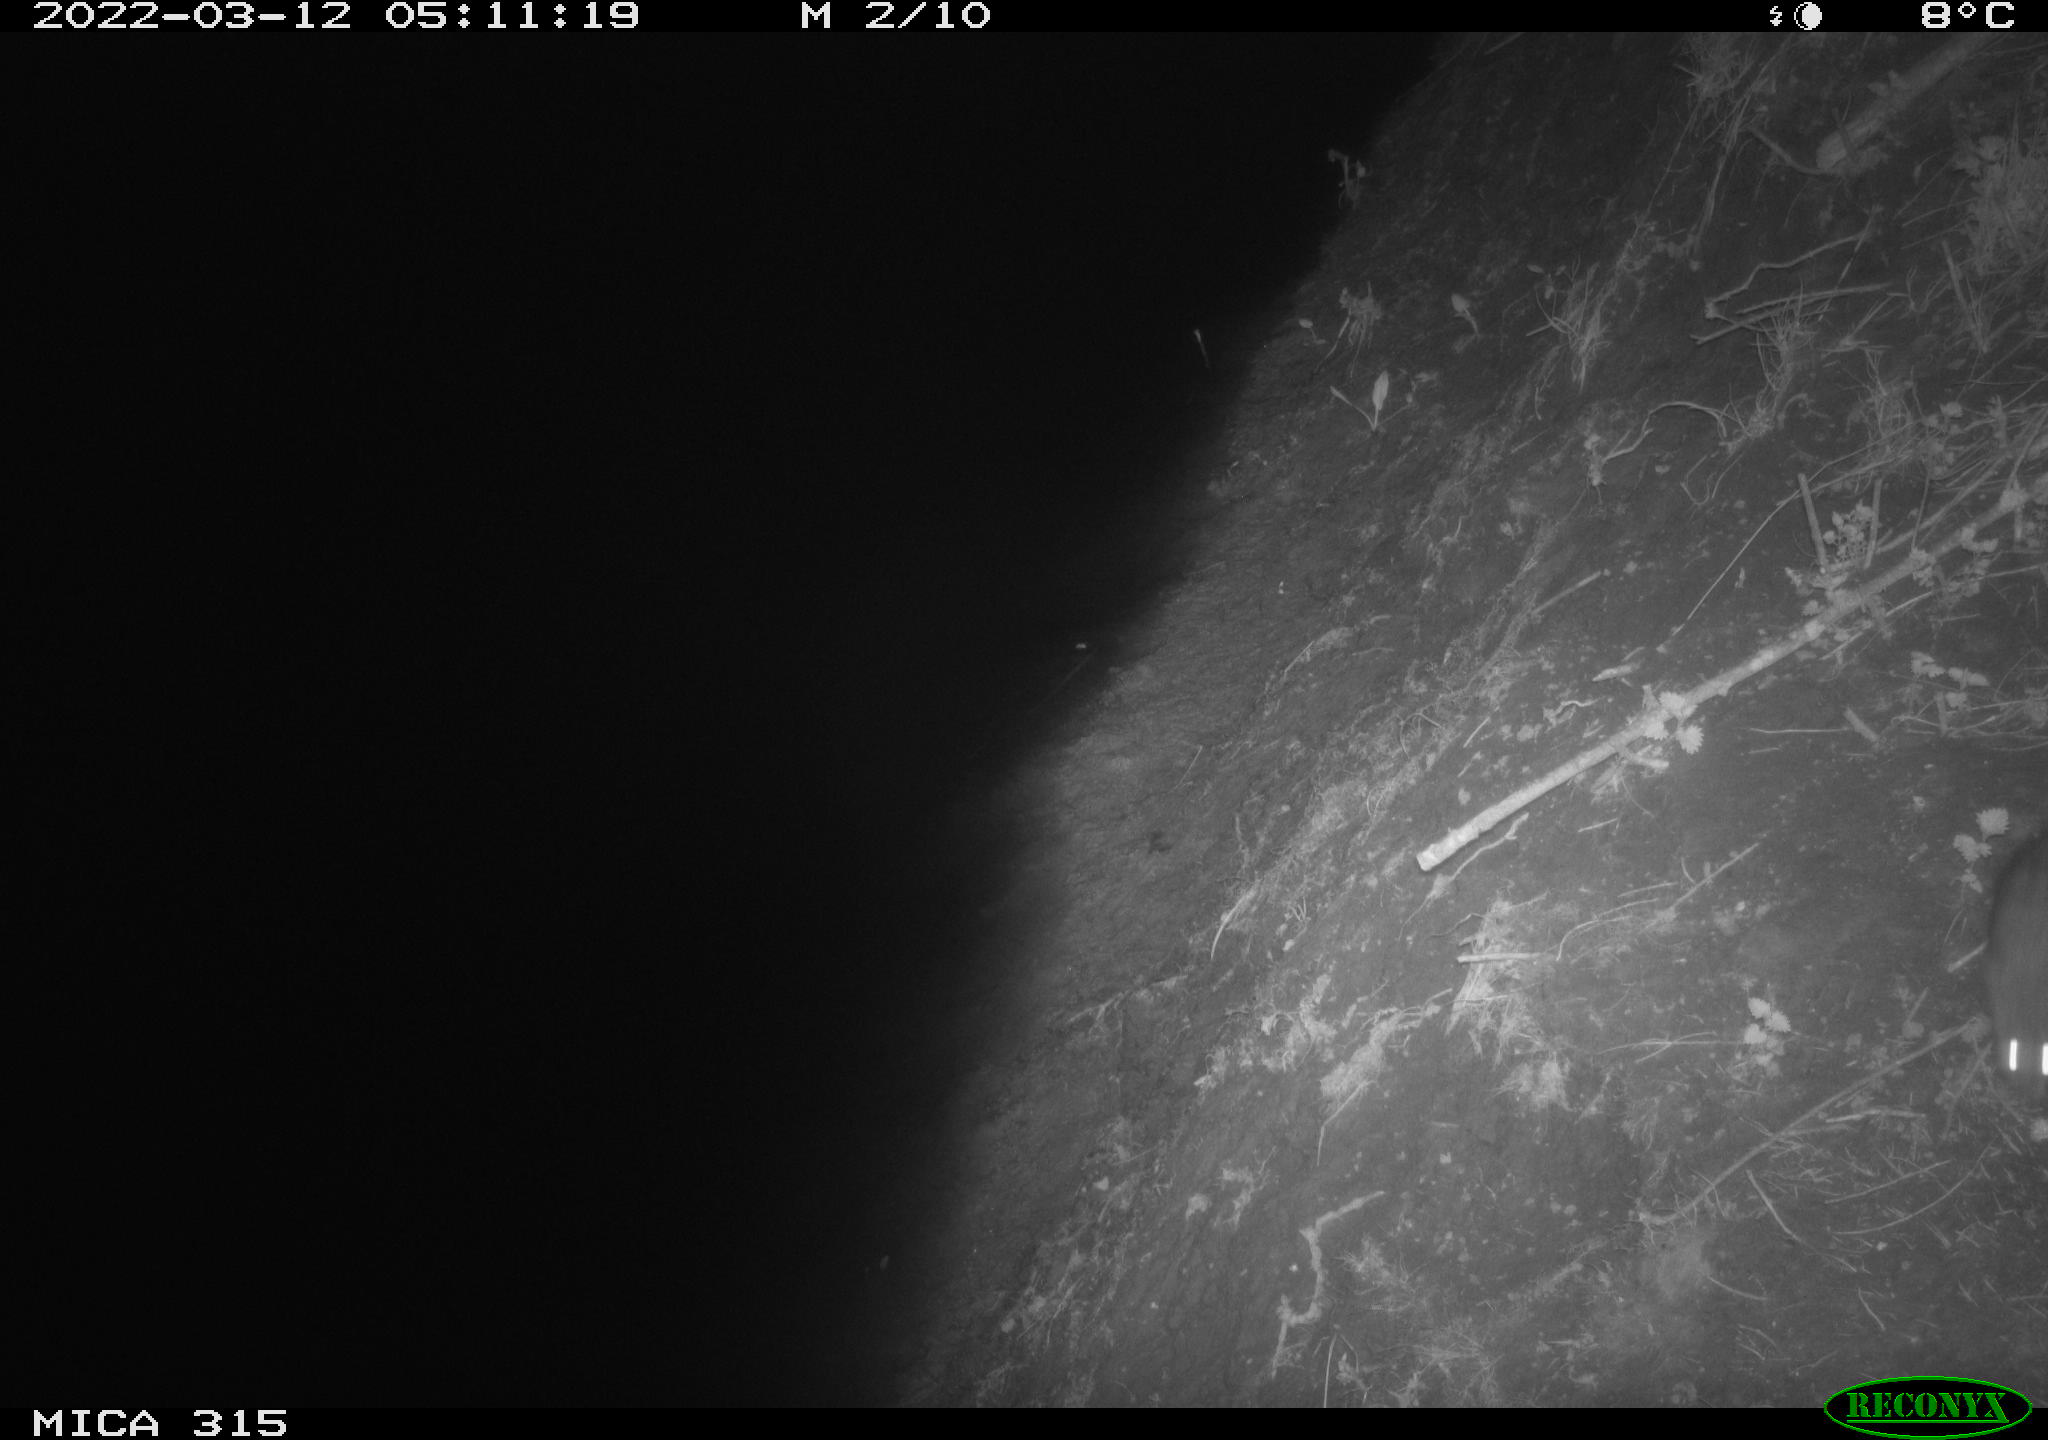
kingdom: Animalia
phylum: Chordata
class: Mammalia
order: Rodentia
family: Muridae
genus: Rattus
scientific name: Rattus norvegicus
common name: Brown rat
